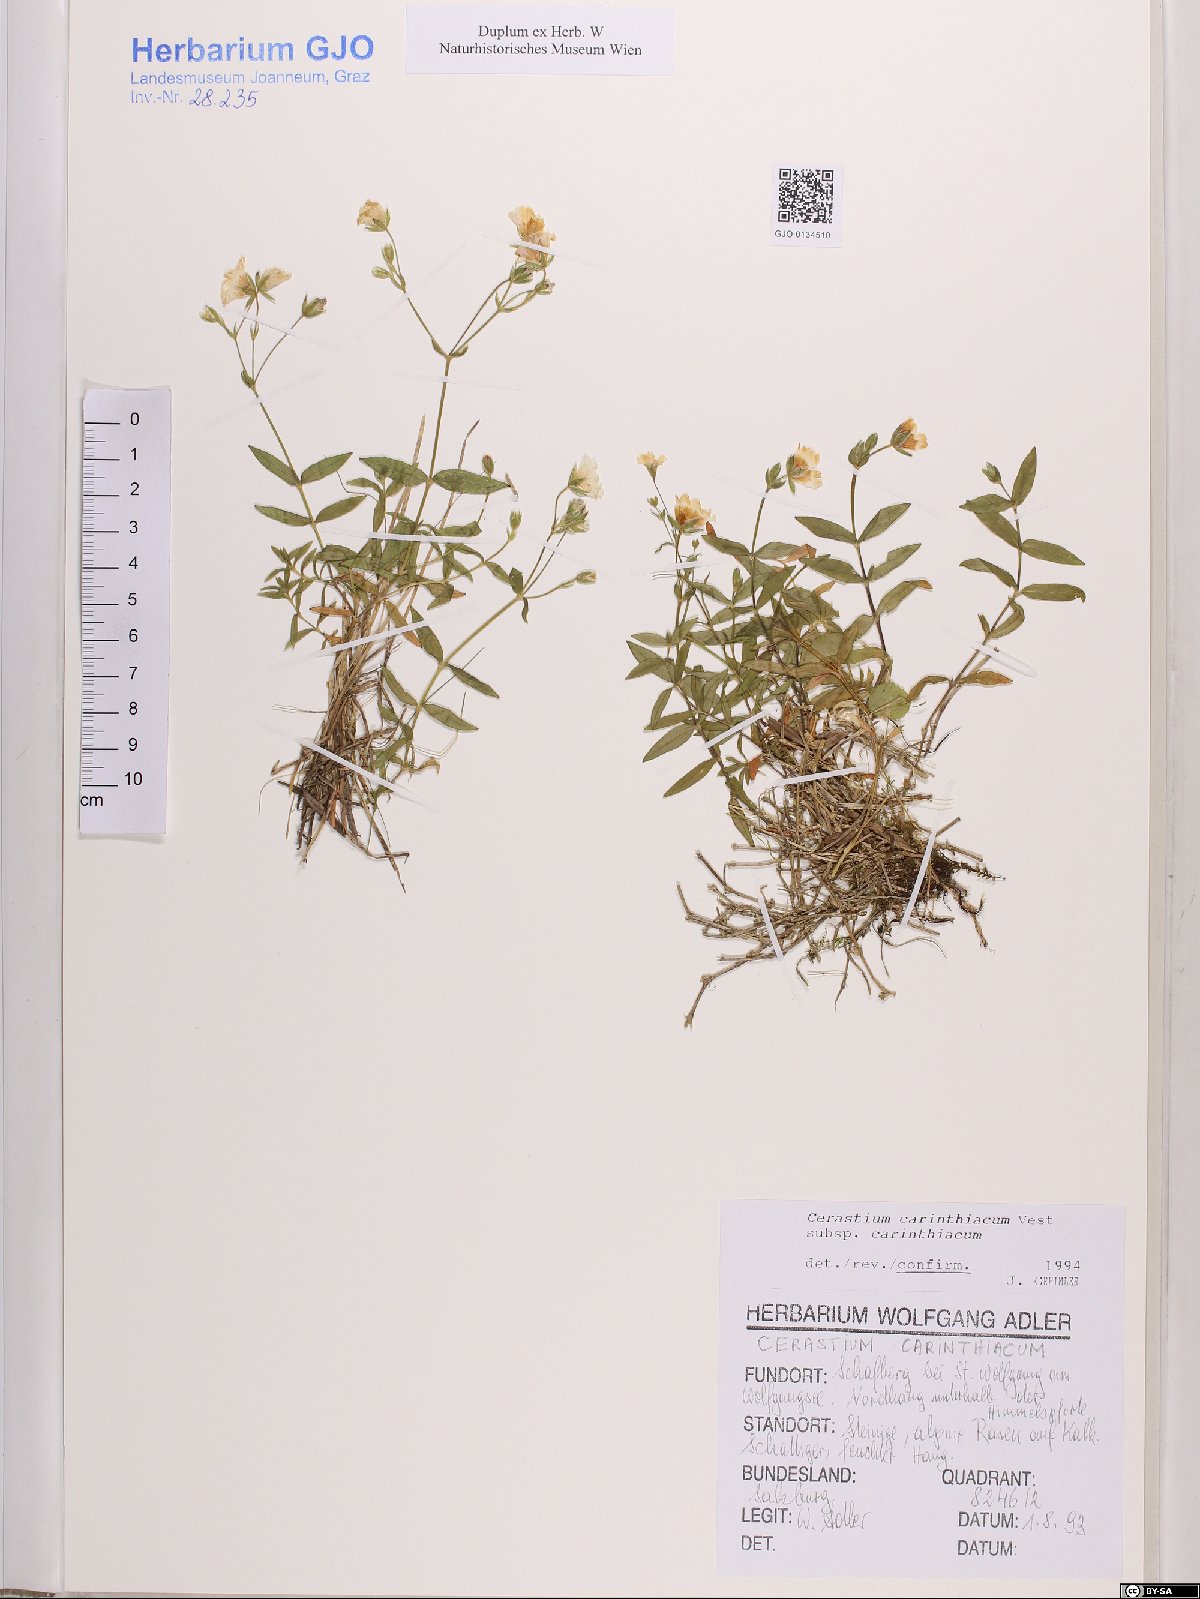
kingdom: Plantae
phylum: Tracheophyta
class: Magnoliopsida
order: Caryophyllales
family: Caryophyllaceae
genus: Cerastium
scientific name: Cerastium carinthiacum
